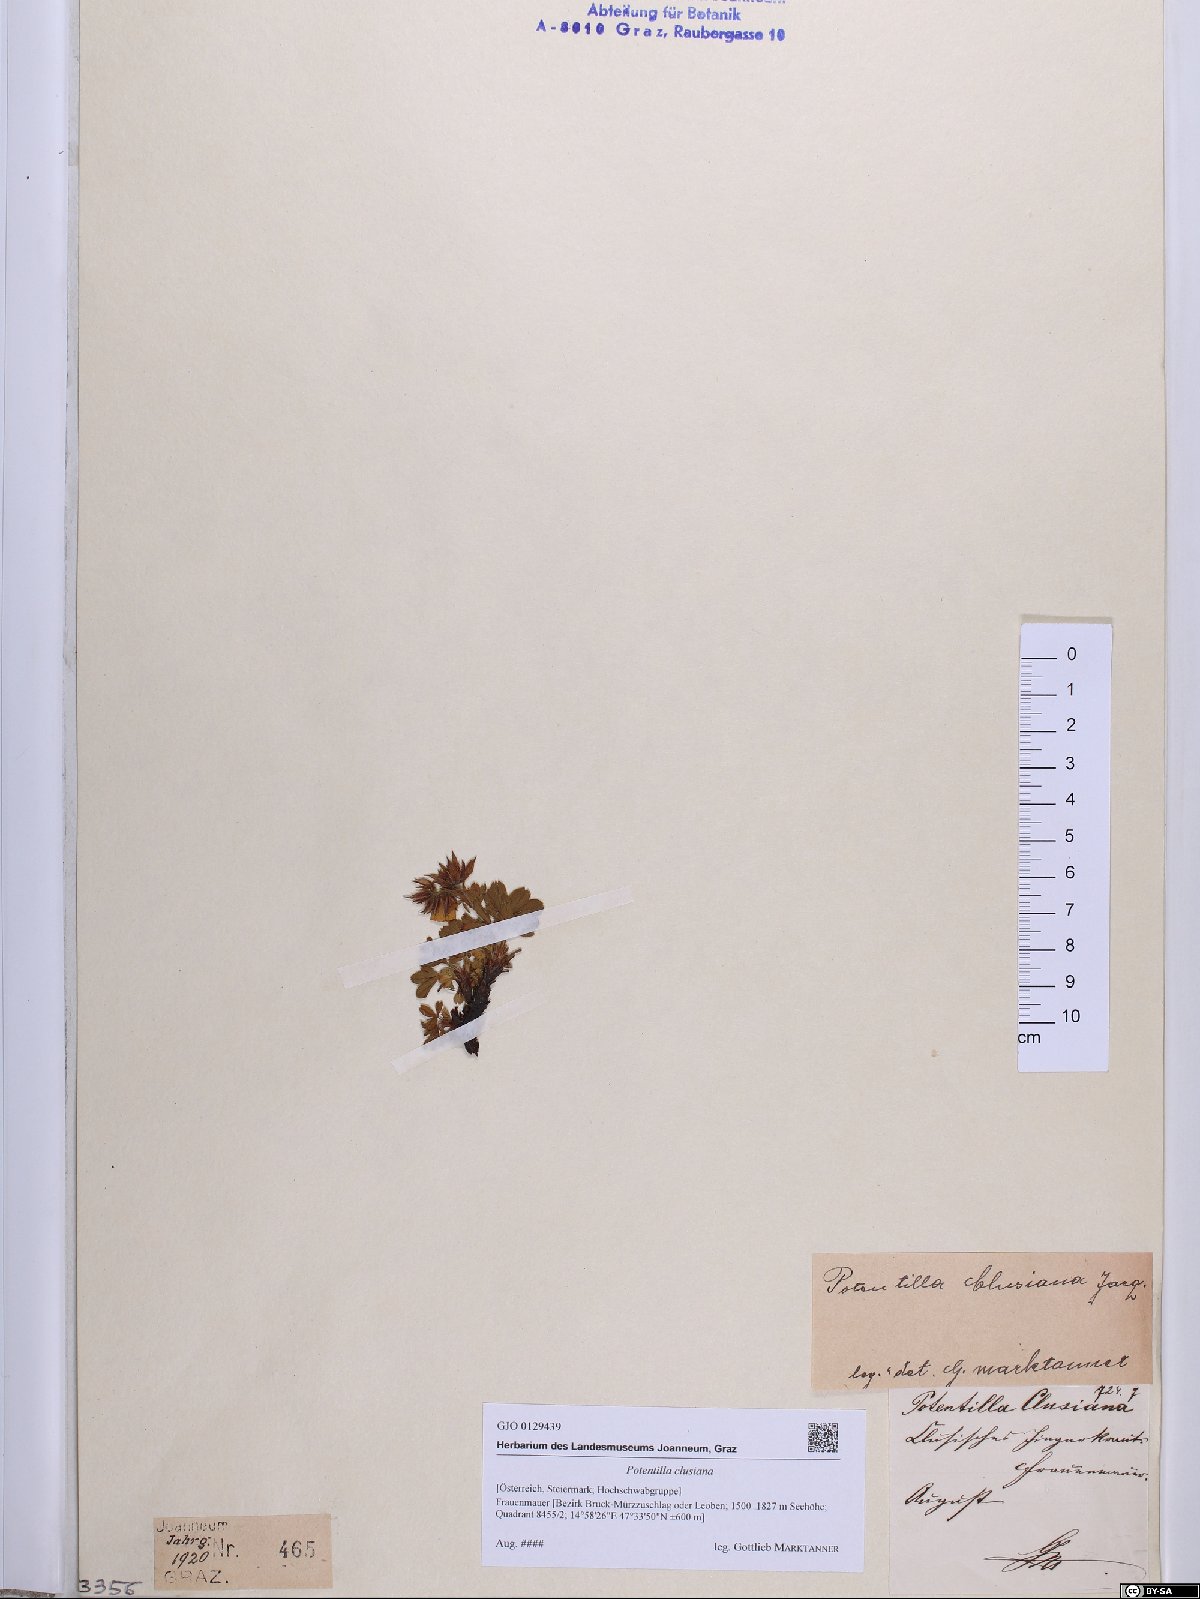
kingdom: Plantae
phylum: Tracheophyta
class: Magnoliopsida
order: Rosales
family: Rosaceae
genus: Potentilla
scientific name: Potentilla clusiana
